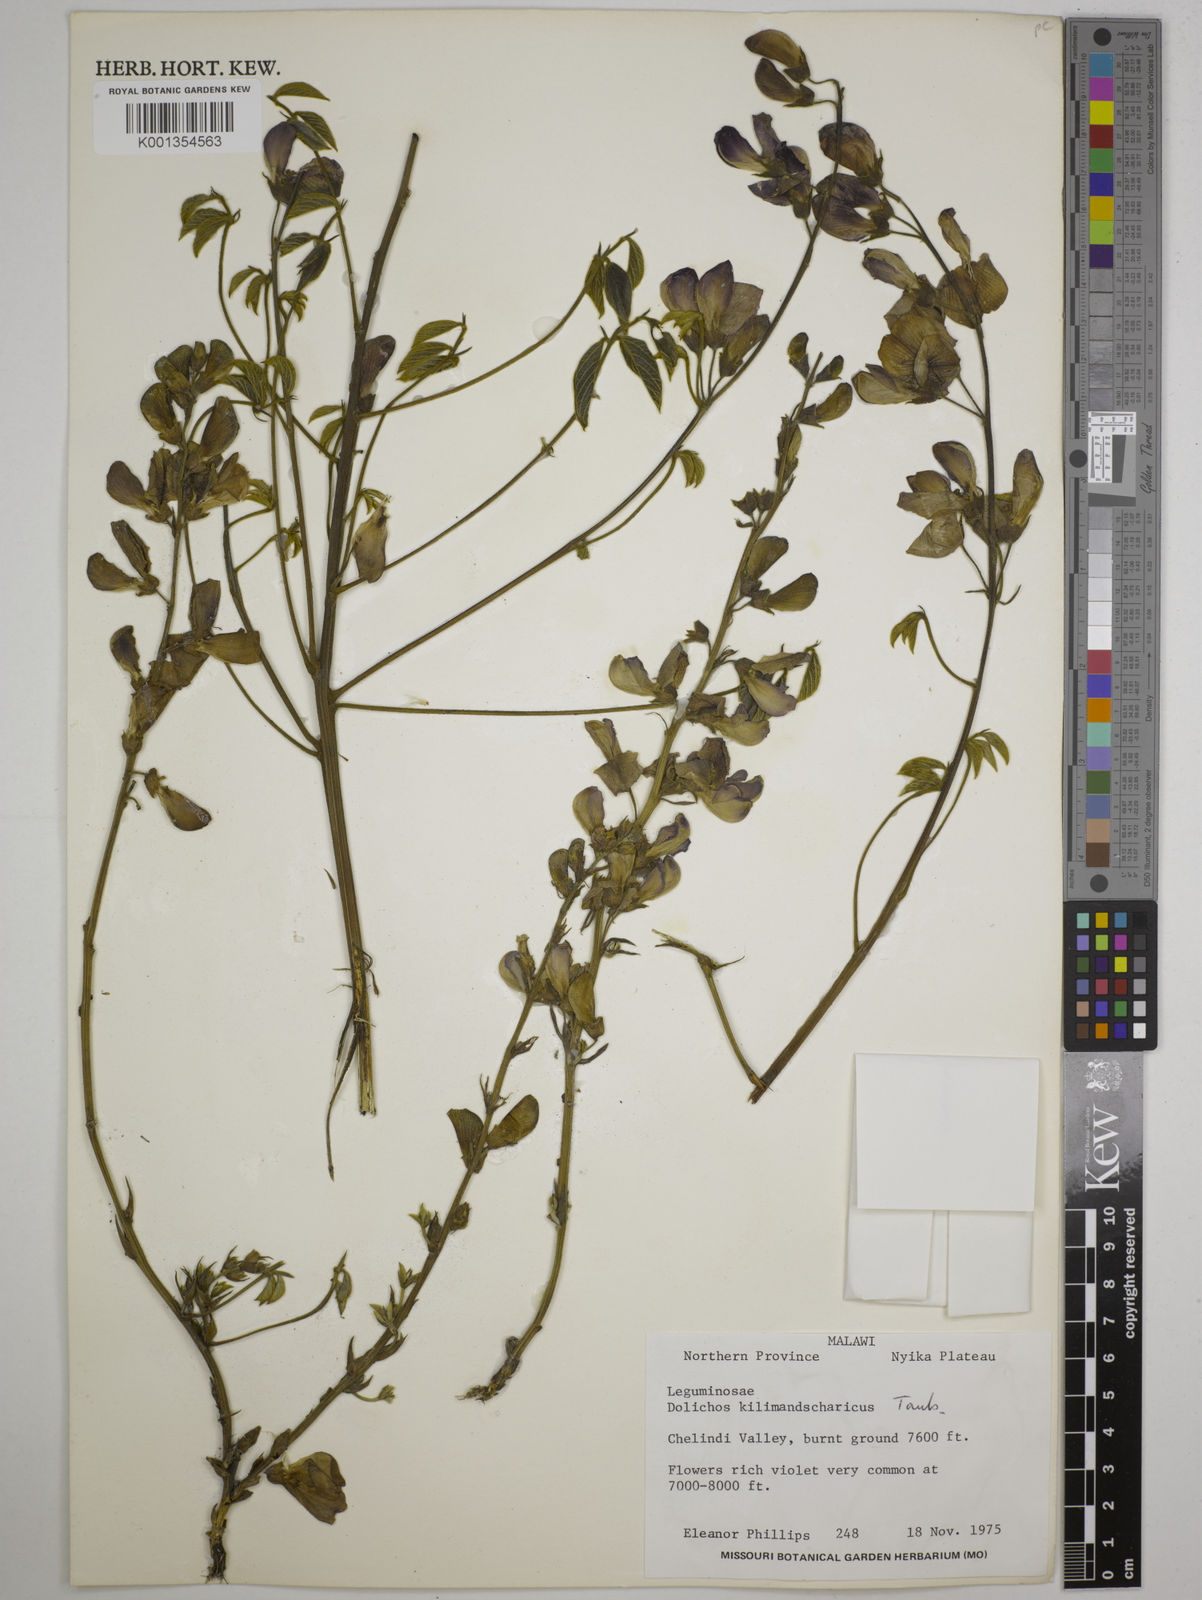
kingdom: Plantae
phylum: Tracheophyta
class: Magnoliopsida
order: Fabales
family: Fabaceae
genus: Dolichos
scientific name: Dolichos kilimandscharicus
